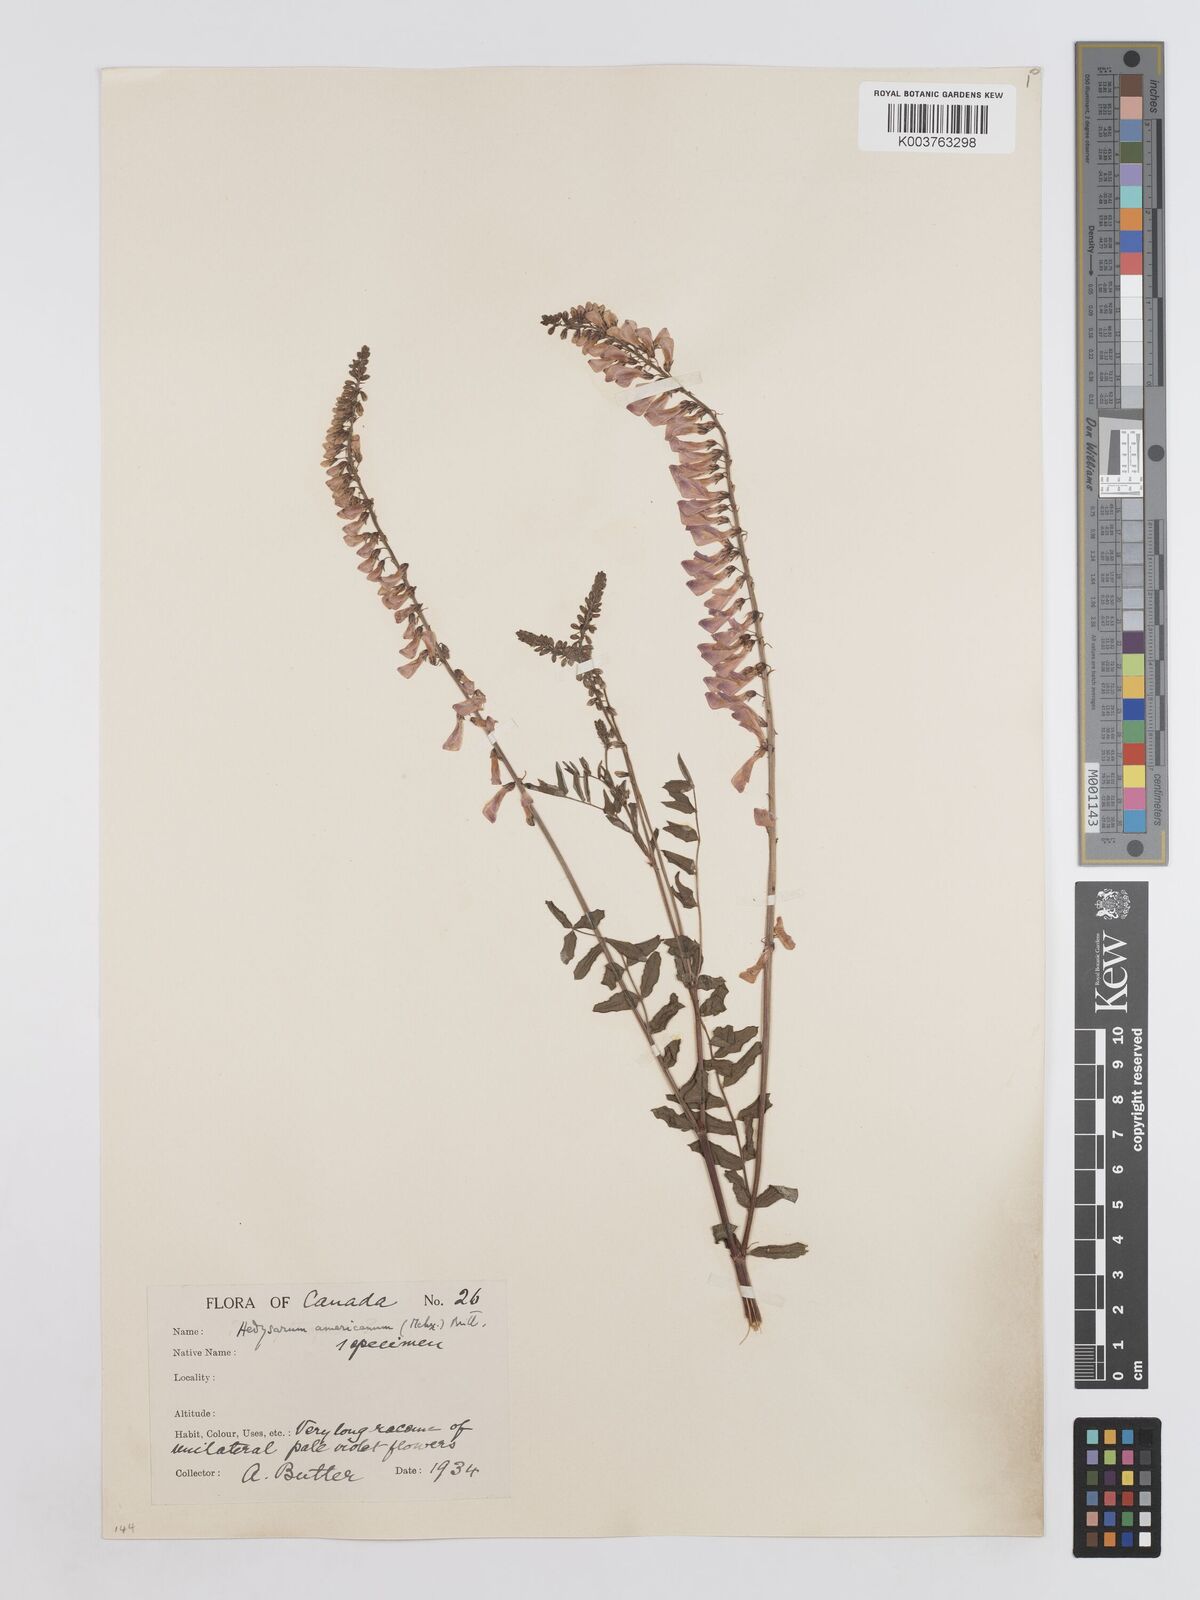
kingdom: Plantae
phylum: Tracheophyta
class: Magnoliopsida
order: Fabales
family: Fabaceae
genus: Hedysarum
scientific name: Hedysarum alpinum
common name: Alpine sweet-vetch
